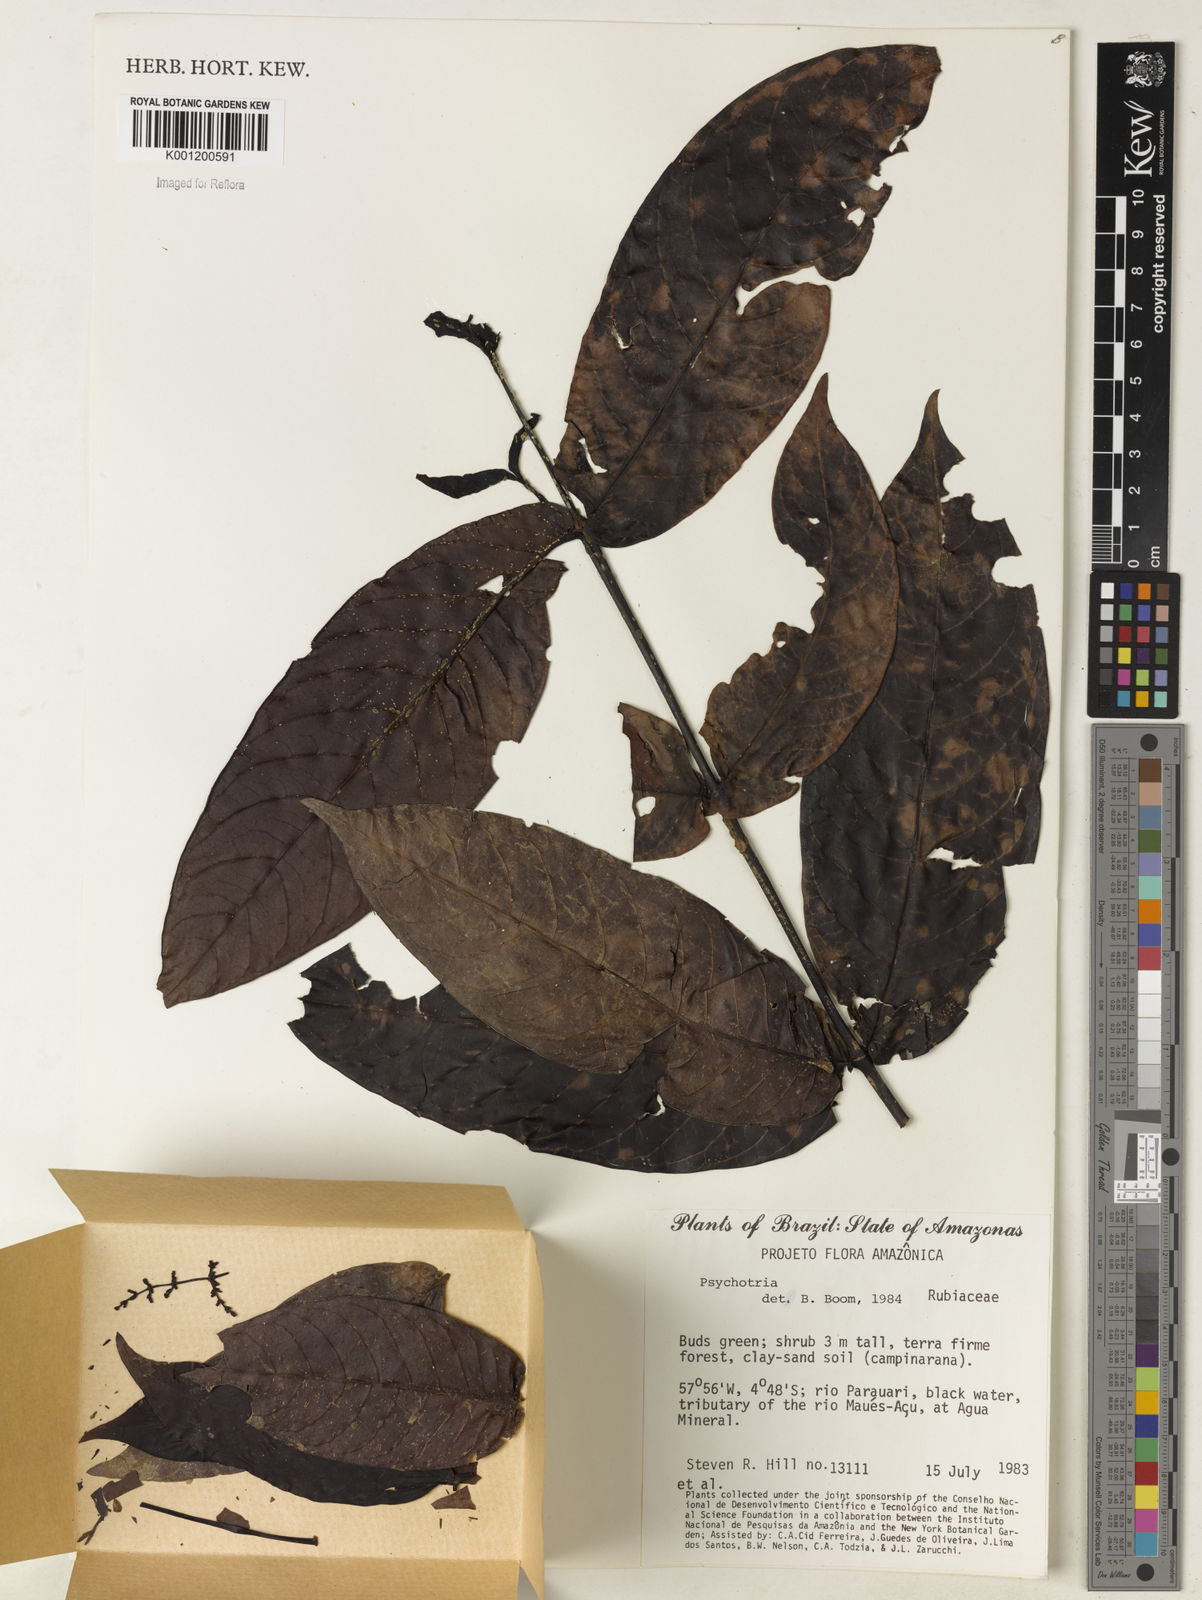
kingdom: Plantae
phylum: Tracheophyta
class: Magnoliopsida
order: Gentianales
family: Rubiaceae
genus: Psychotria
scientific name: Psychotria
